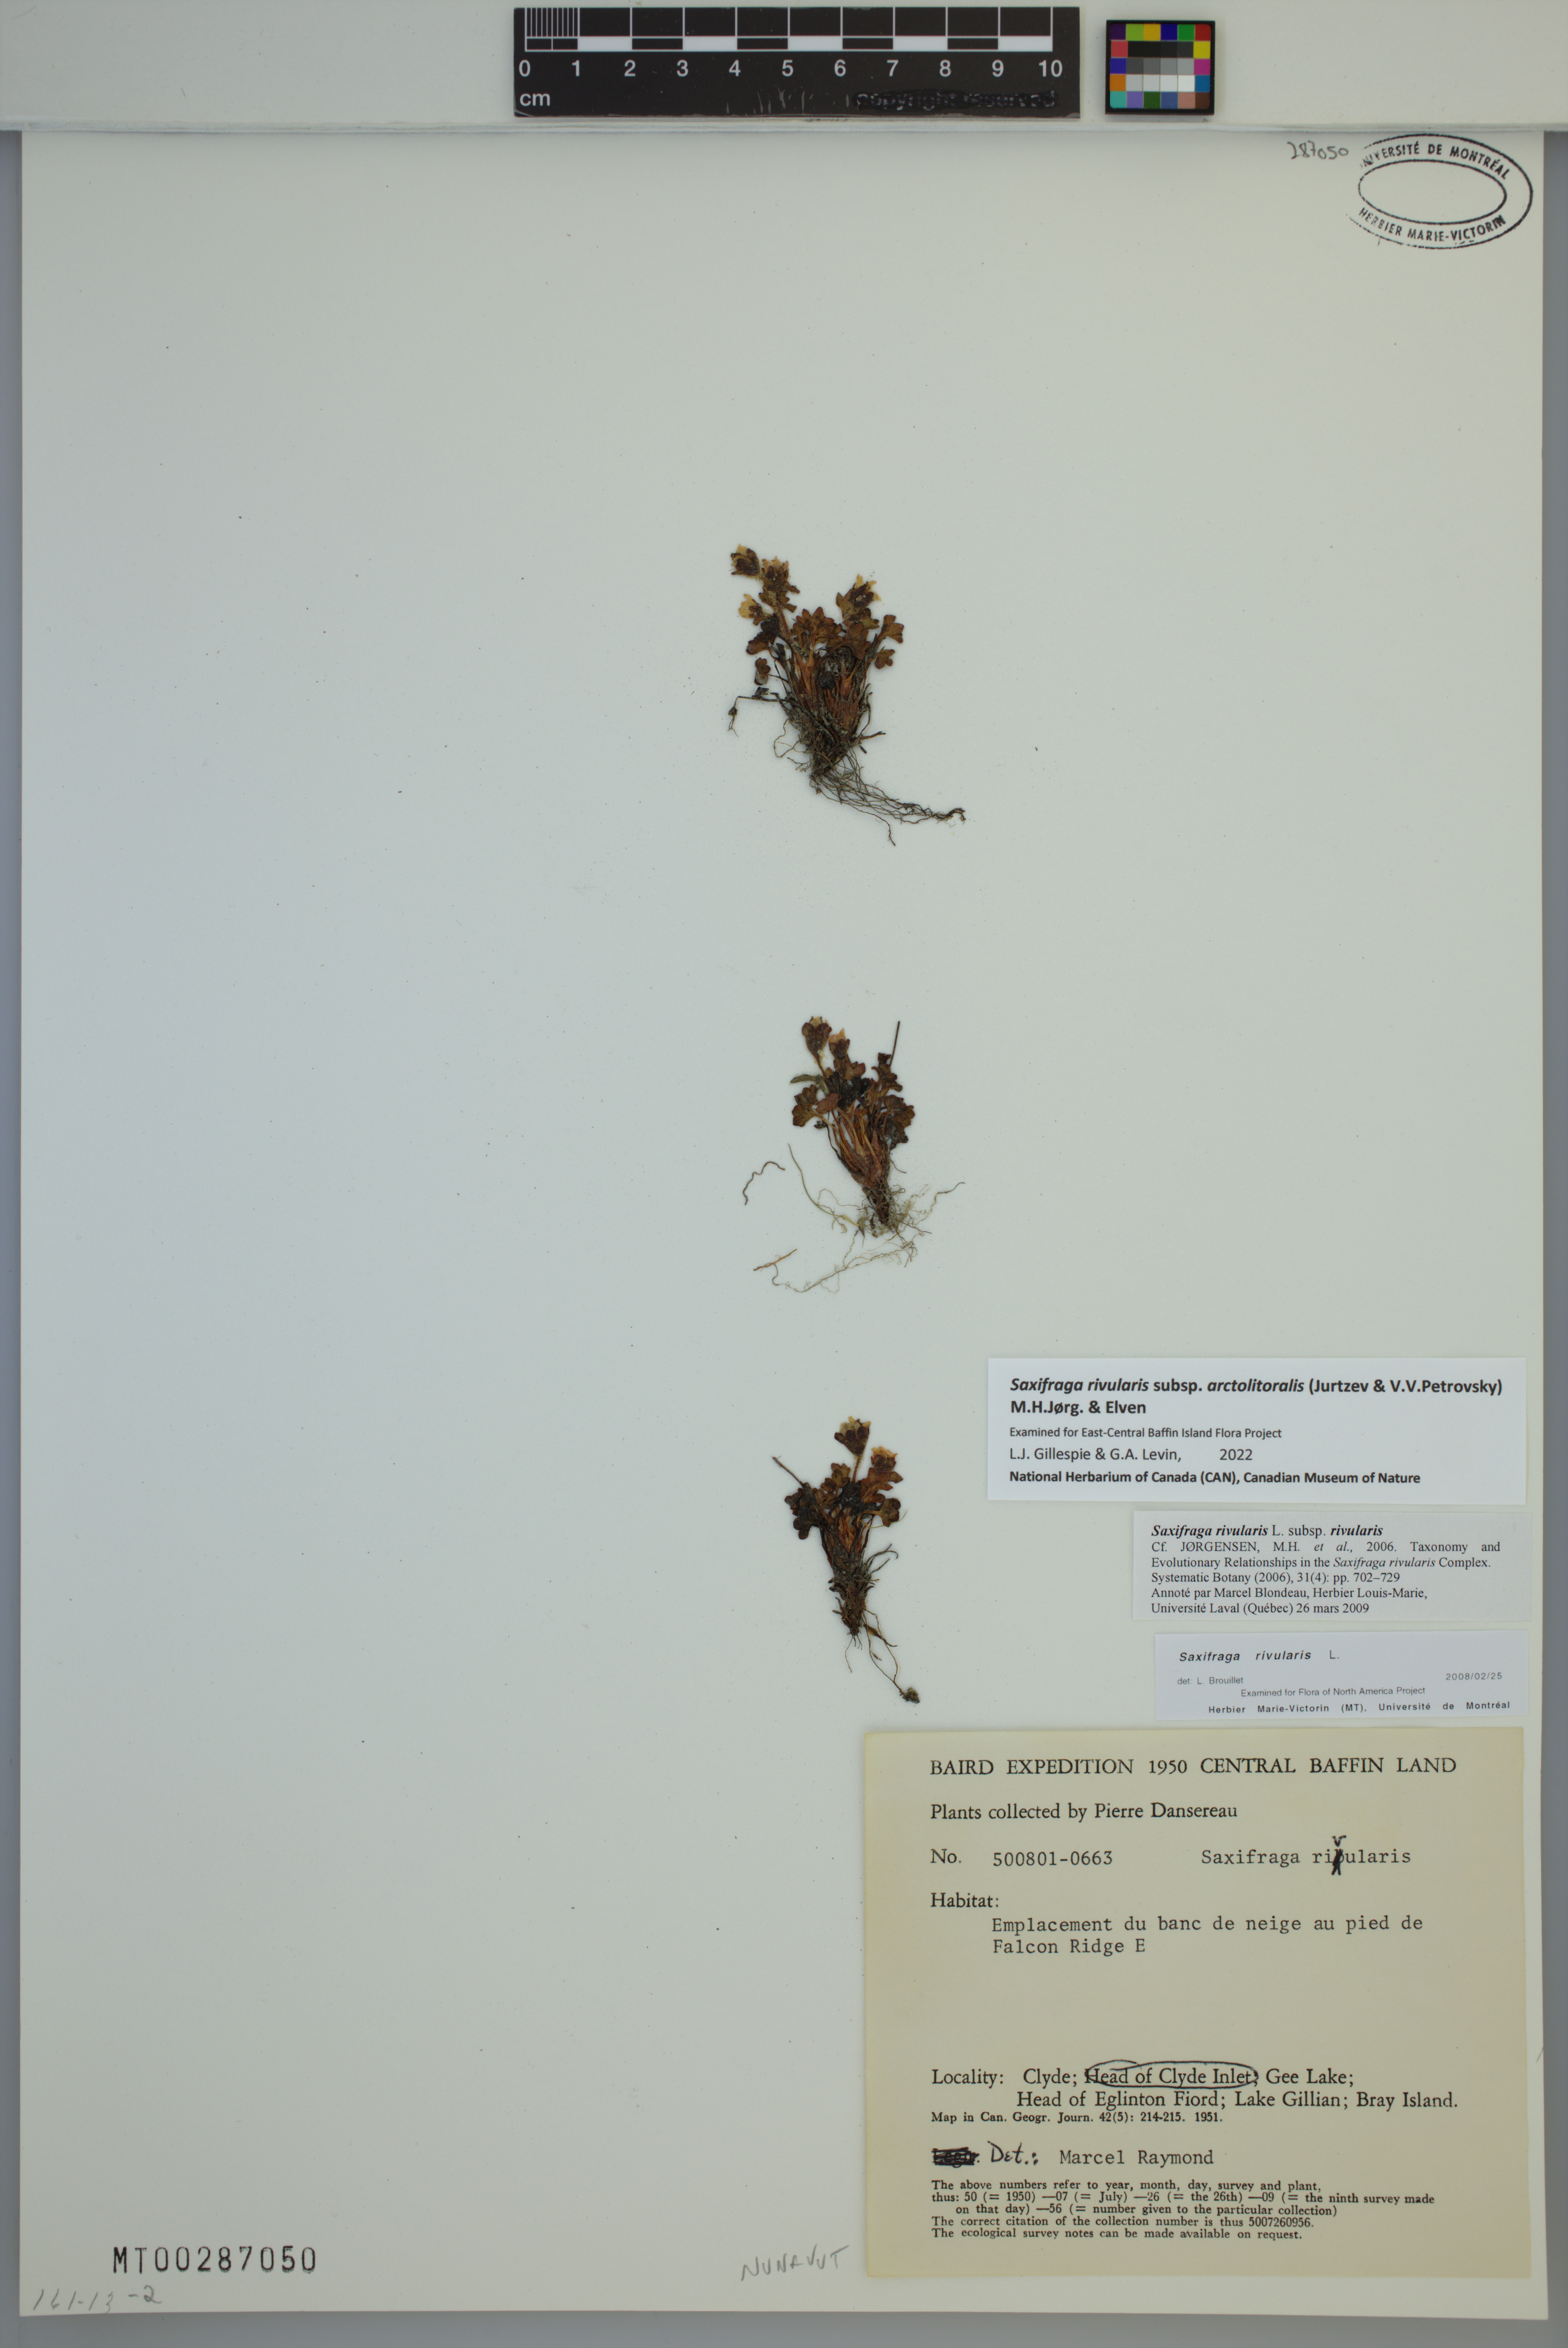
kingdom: Plantae
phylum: Tracheophyta
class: Magnoliopsida
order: Saxifragales
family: Saxifragaceae
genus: Saxifraga
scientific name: Saxifraga rivularis
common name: Highland saxifrage
